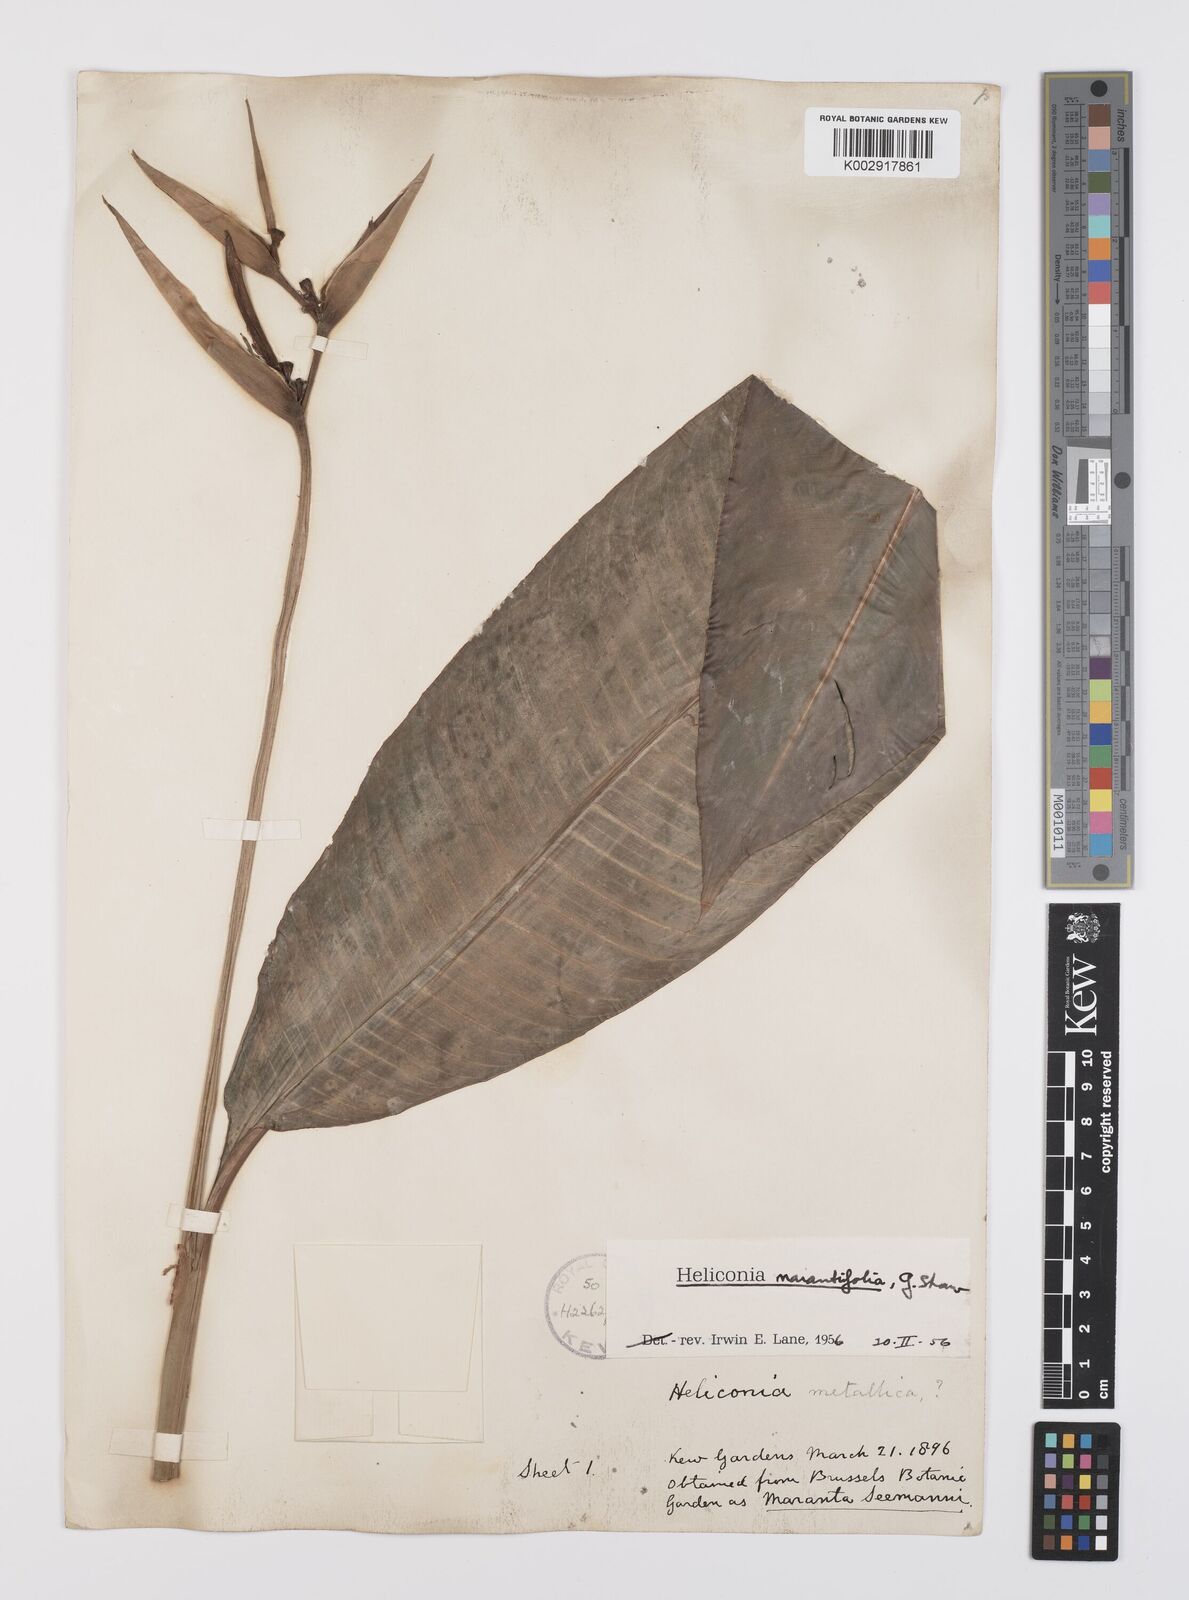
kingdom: Plantae
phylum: Tracheophyta
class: Liliopsida
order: Zingiberales
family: Heliconiaceae
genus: Heliconia
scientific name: Heliconia psittacorum
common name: Parrot's-flower
